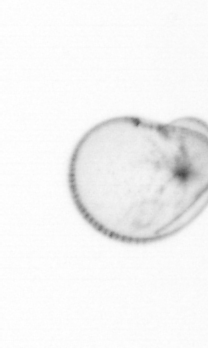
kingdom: Chromista
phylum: Myzozoa
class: Dinophyceae
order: Noctilucales
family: Noctilucaceae
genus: Noctiluca
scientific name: Noctiluca scintillans
